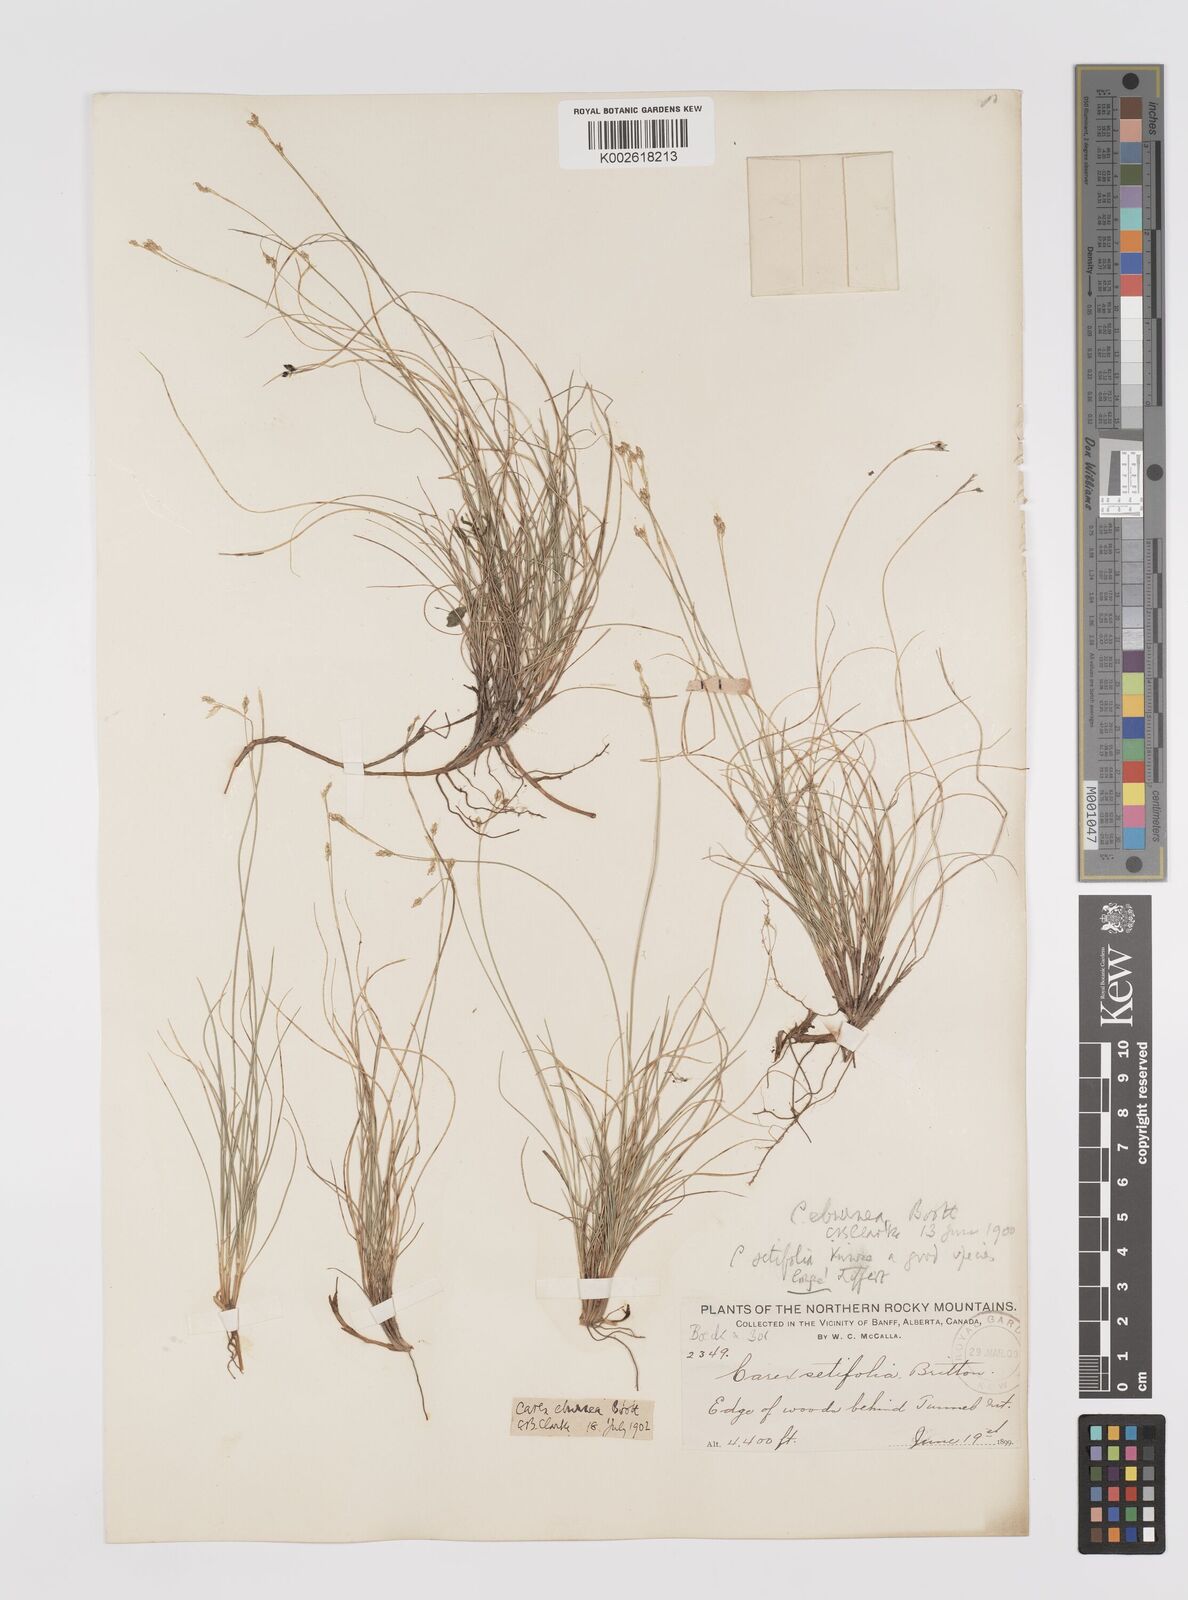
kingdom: Plantae
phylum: Tracheophyta
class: Liliopsida
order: Poales
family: Cyperaceae
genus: Carex
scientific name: Carex eburnea
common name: Bristle-leaved sedge
